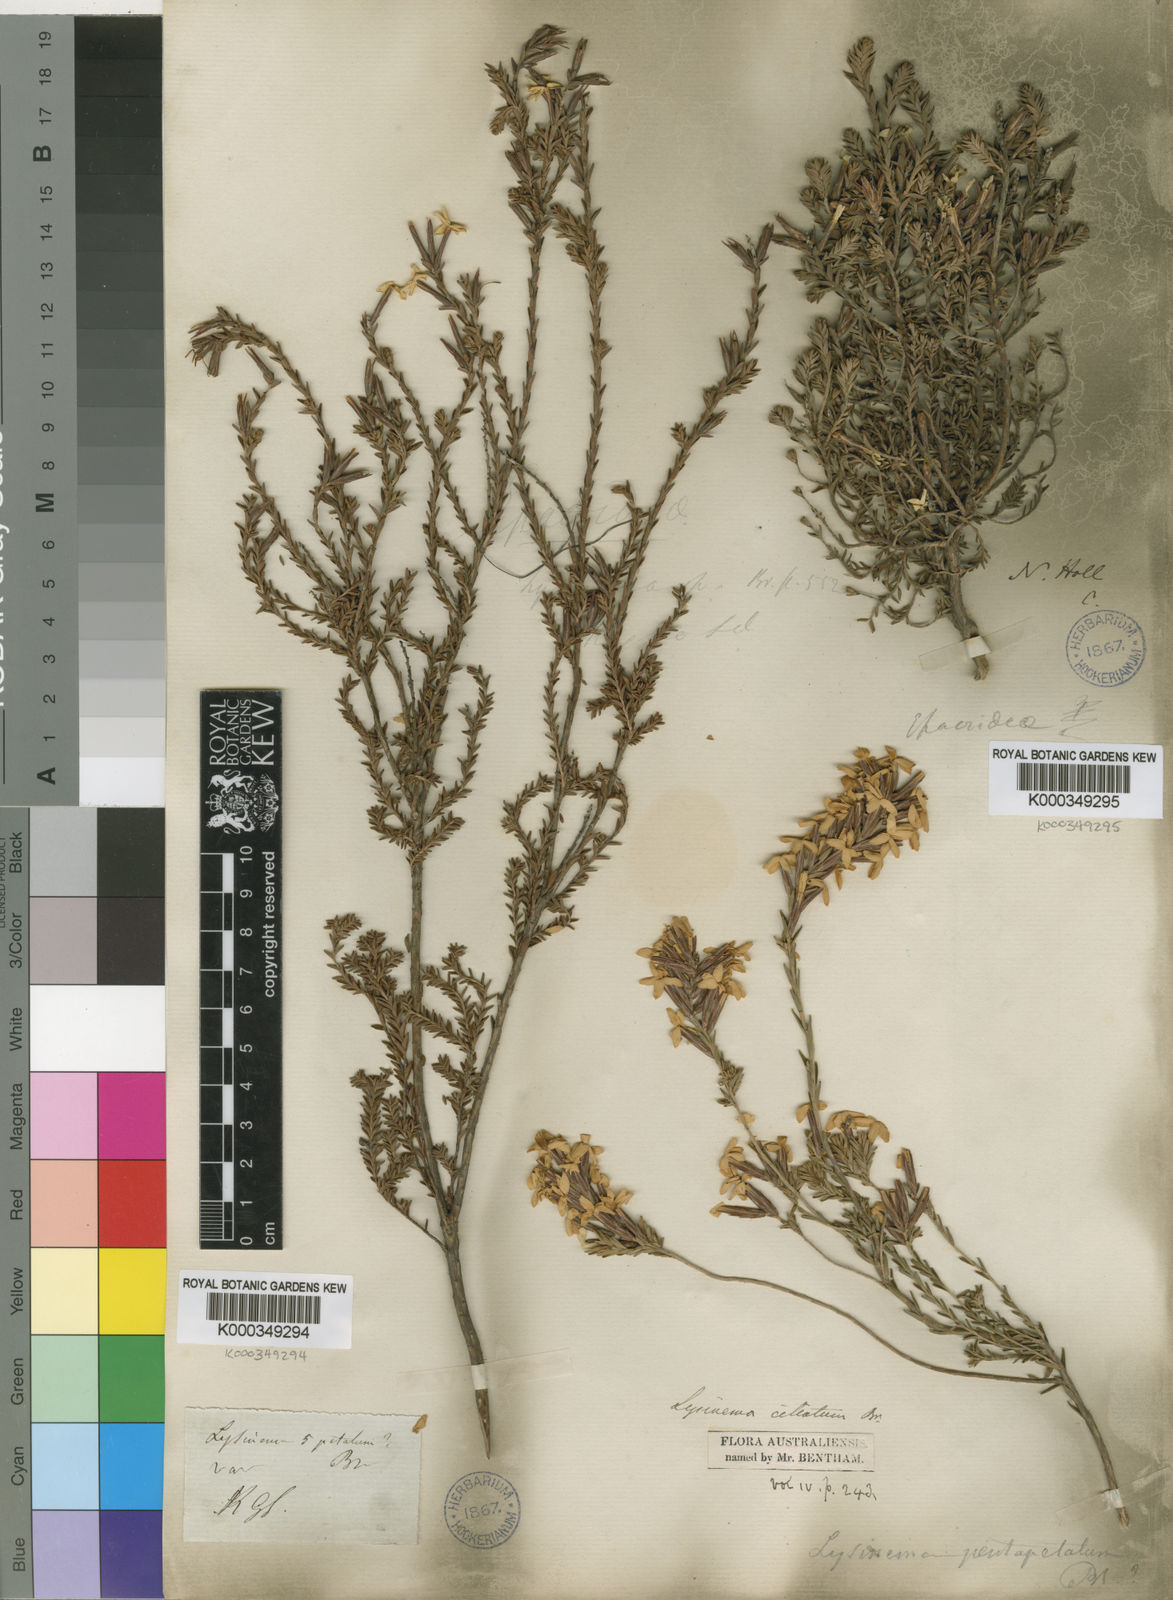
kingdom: Plantae
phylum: Tracheophyta
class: Magnoliopsida
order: Ericales
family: Ericaceae
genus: Lysinema
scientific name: Lysinema
